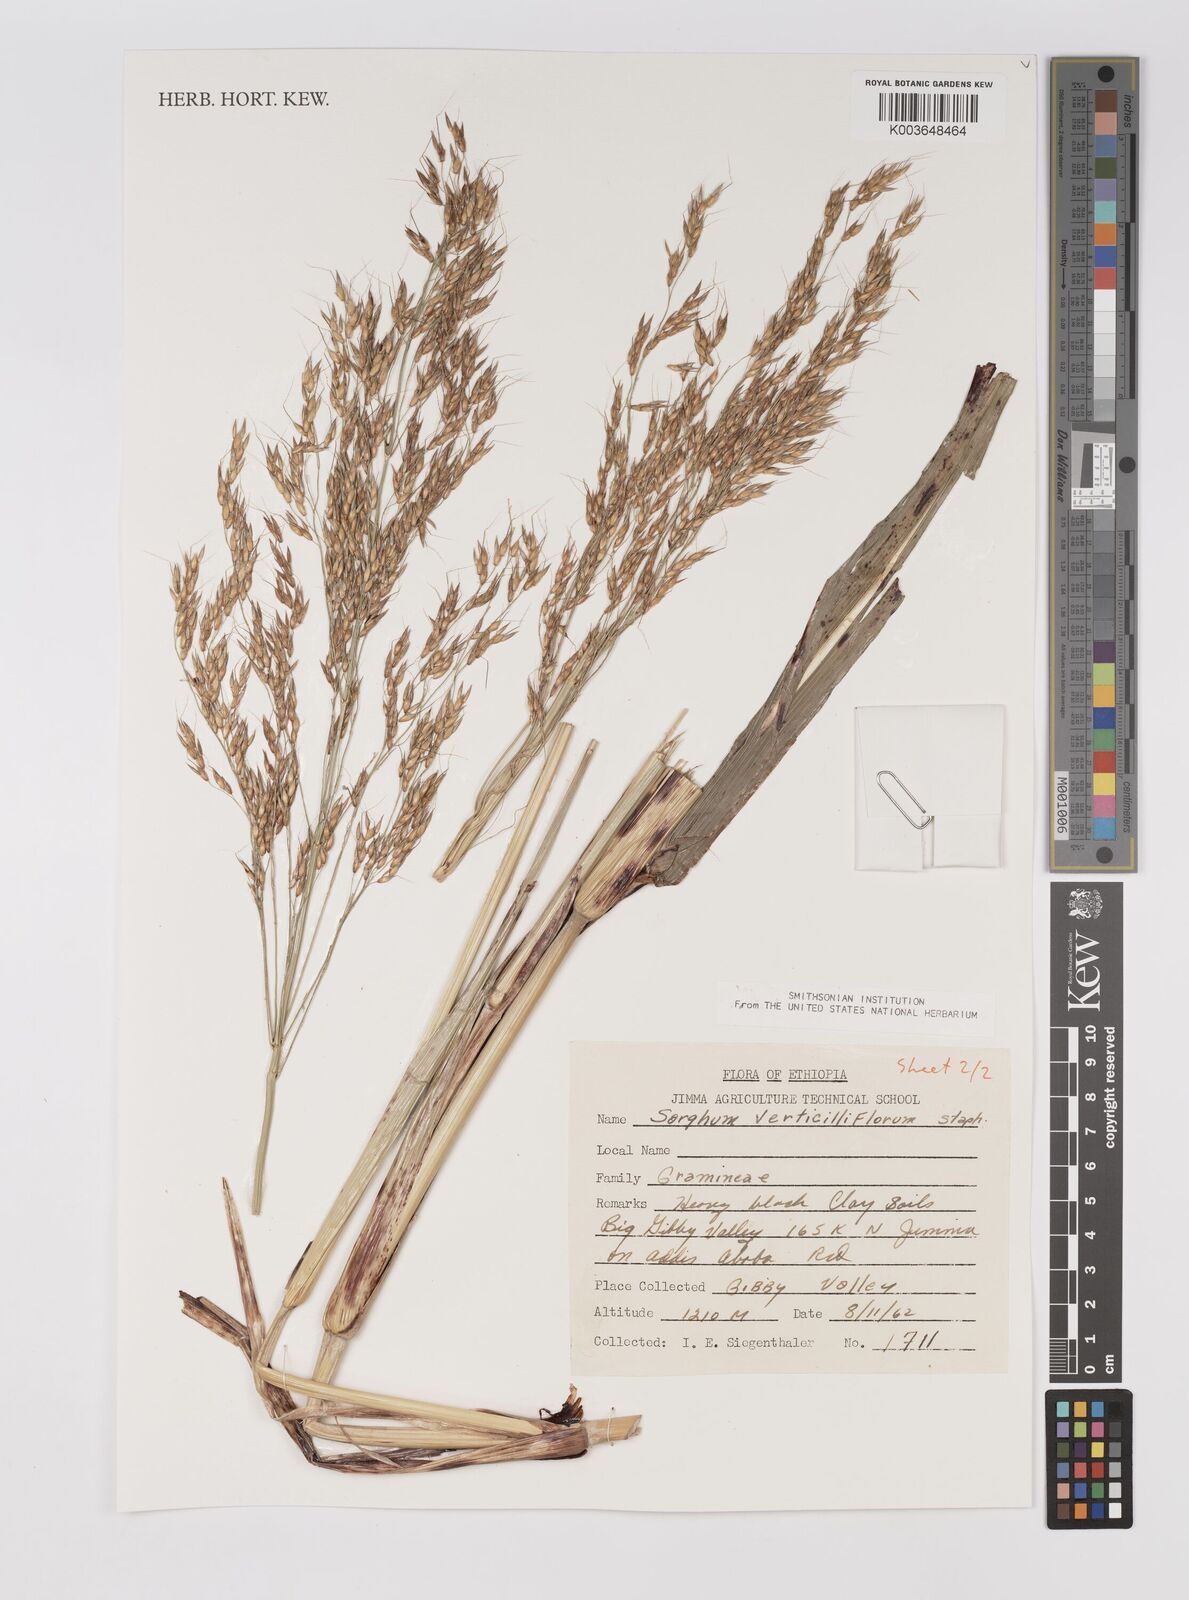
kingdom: Plantae
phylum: Tracheophyta
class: Liliopsida
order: Poales
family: Poaceae
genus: Sorghum
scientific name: Sorghum arundinaceum
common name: Sorghum
